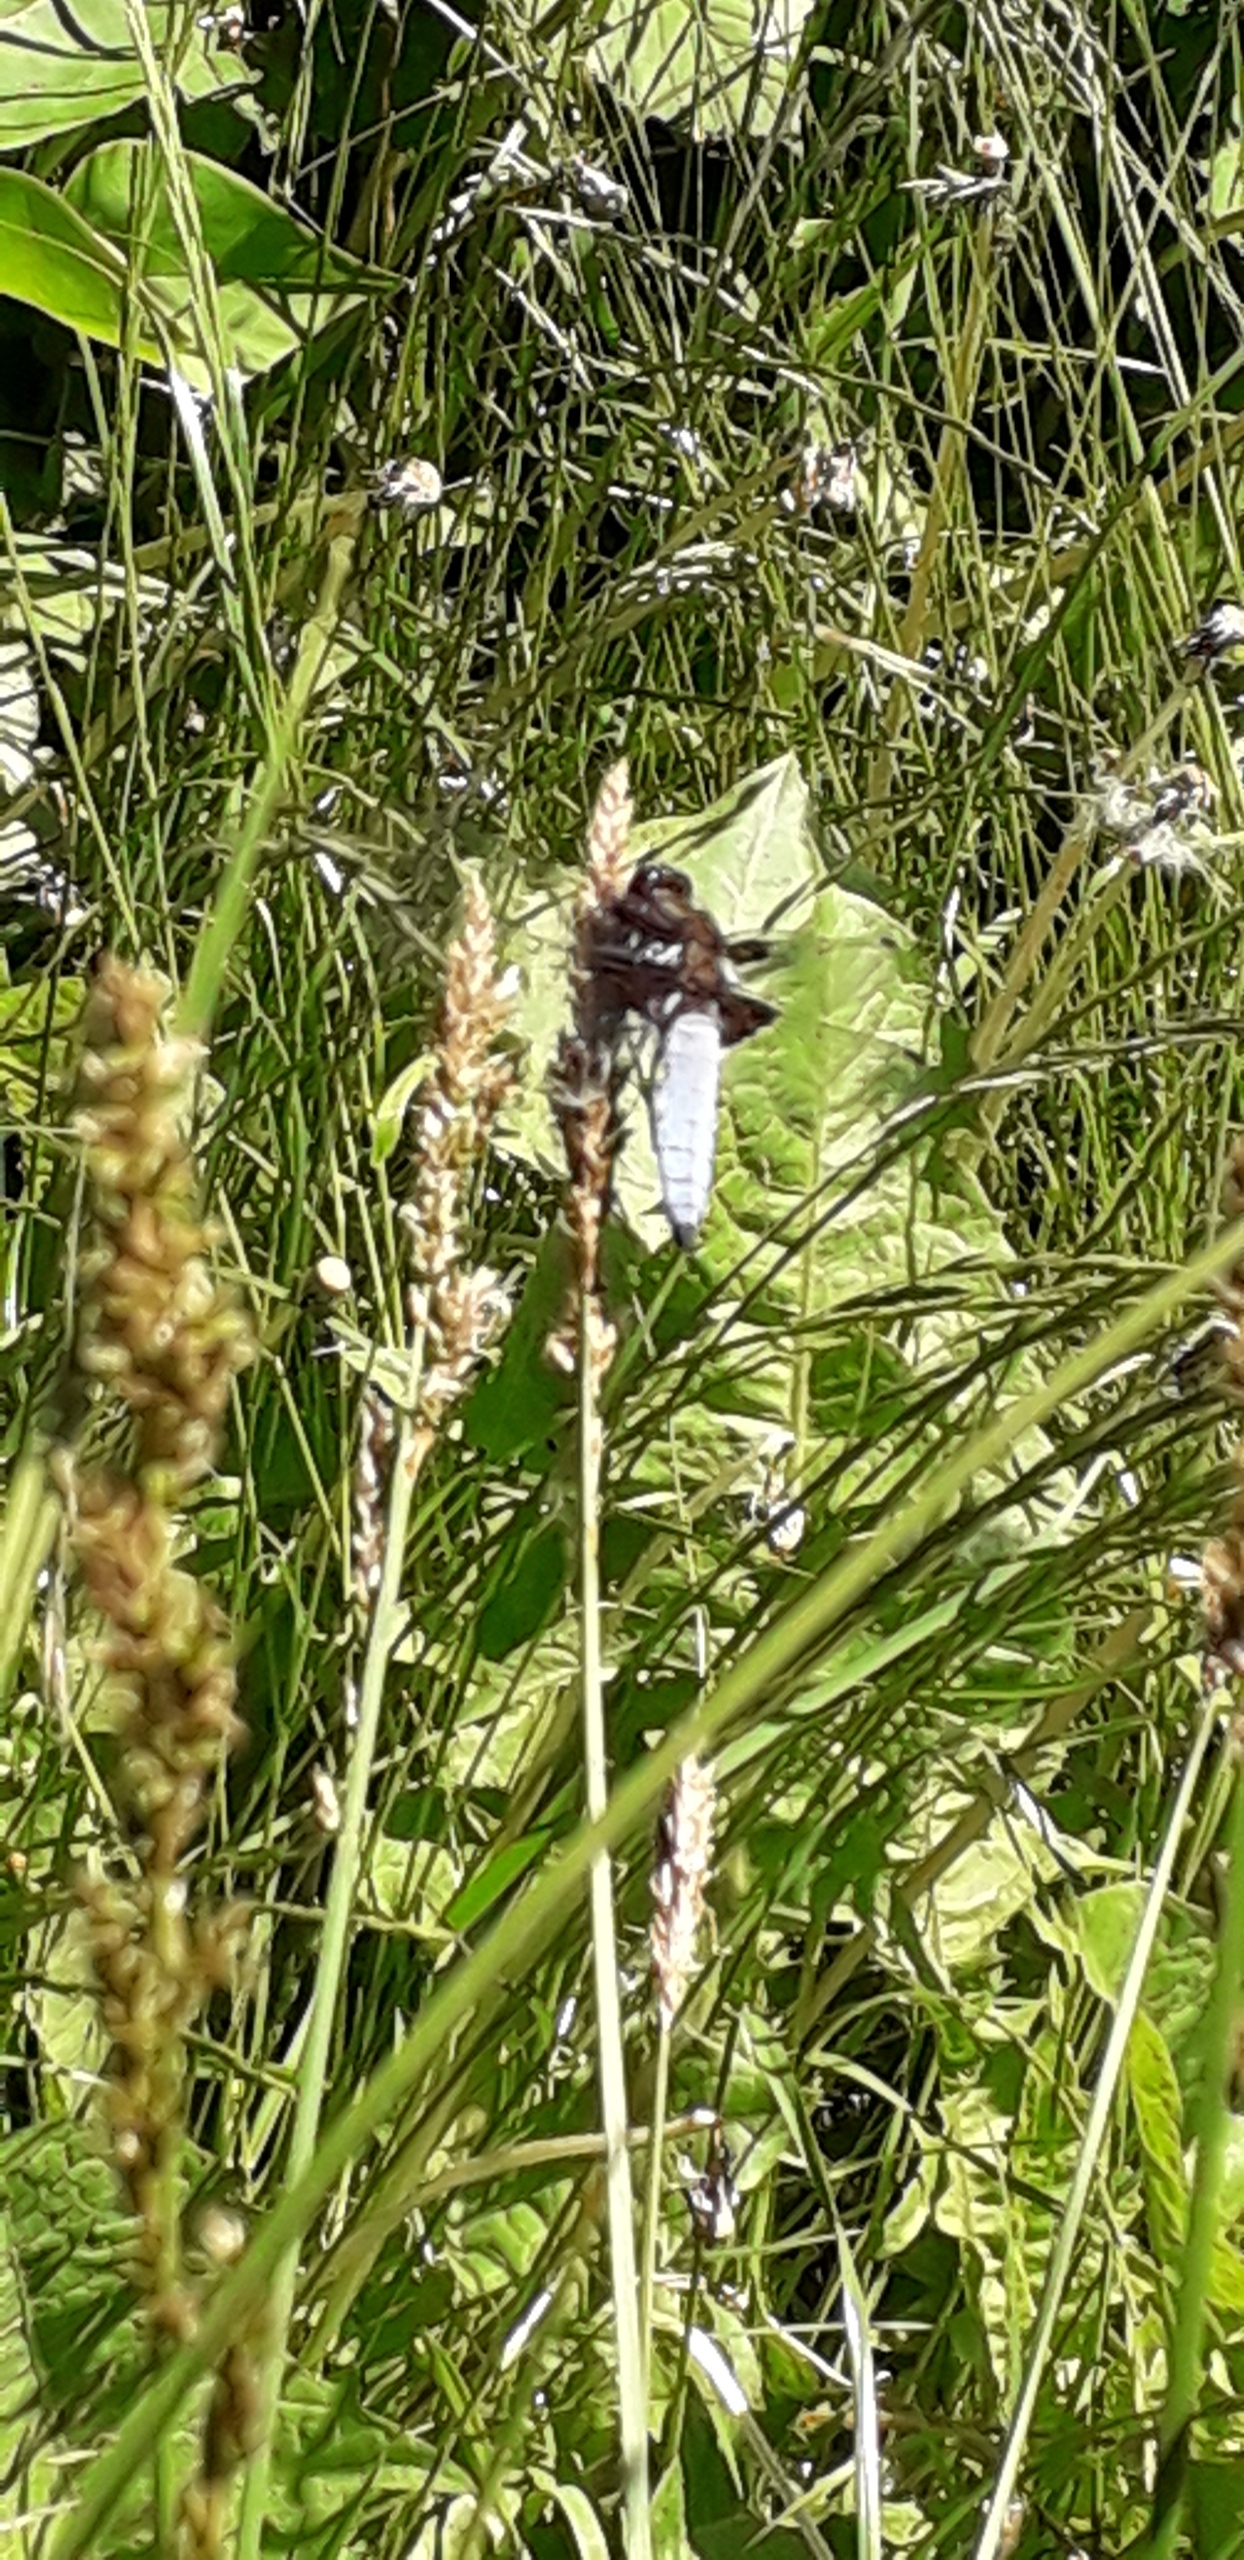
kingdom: Animalia
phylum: Arthropoda
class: Insecta
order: Odonata
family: Libellulidae
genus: Libellula
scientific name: Libellula depressa
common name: Blå libel
